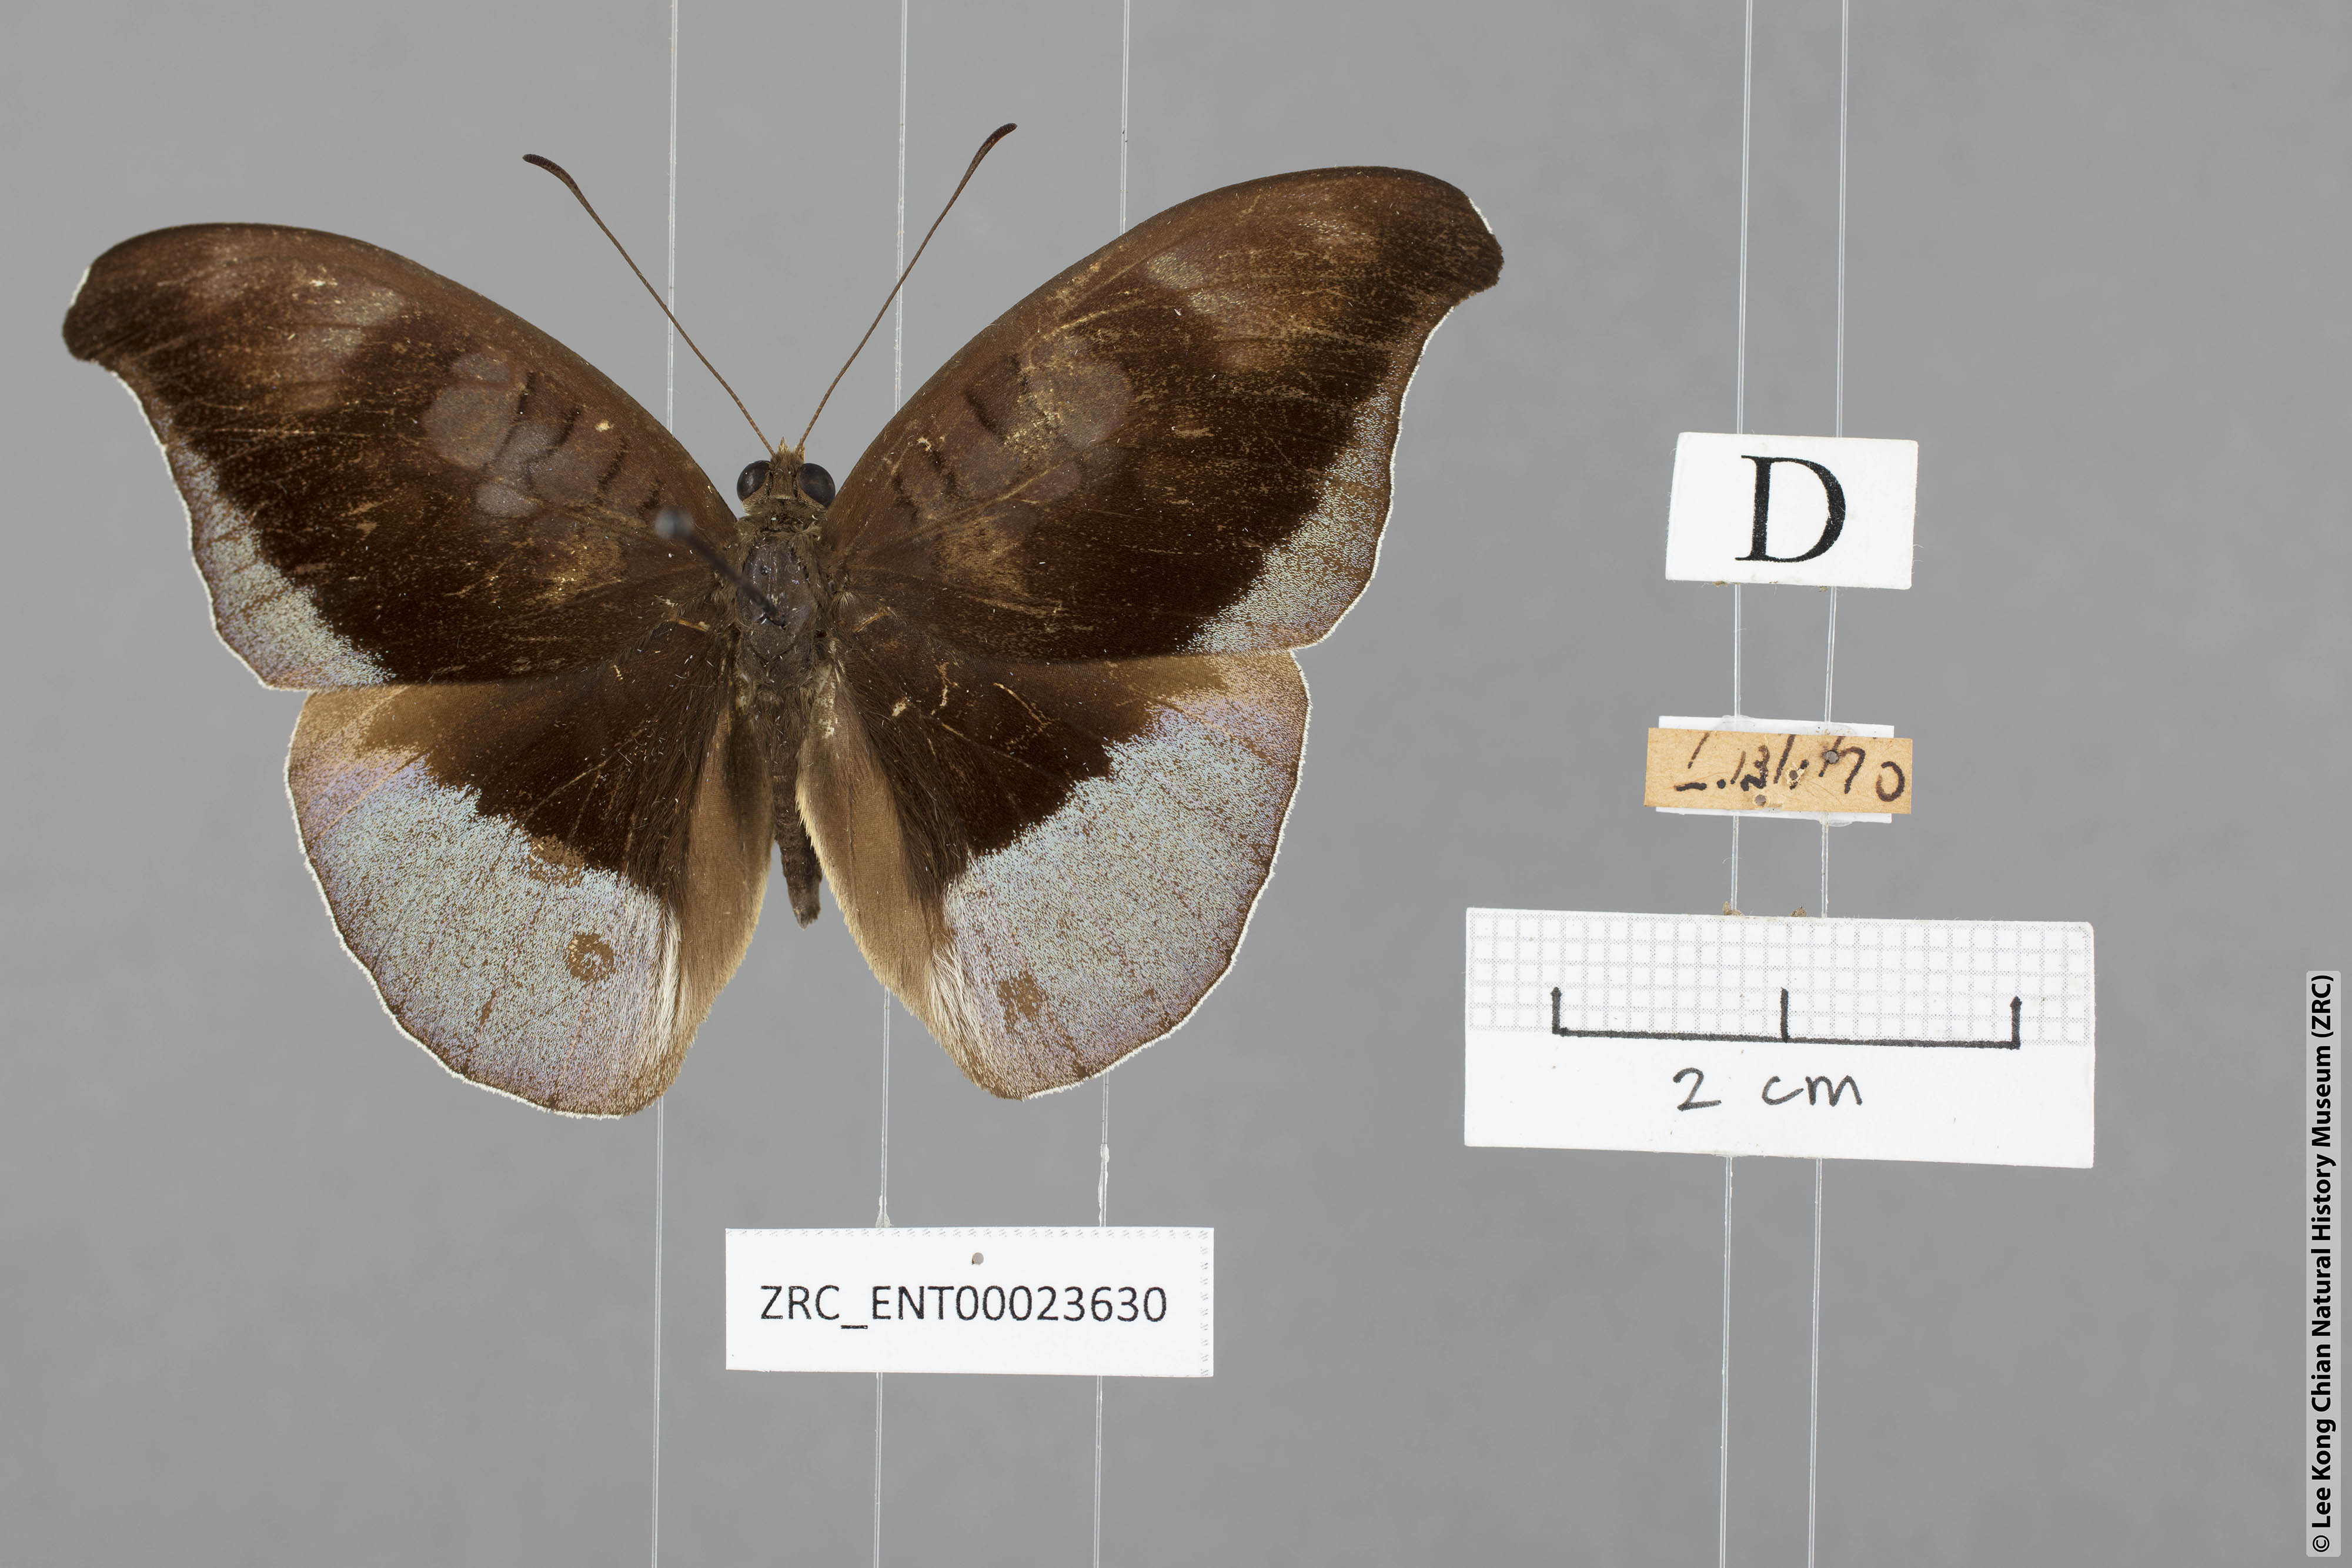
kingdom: Animalia
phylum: Arthropoda
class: Insecta
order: Lepidoptera
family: Nymphalidae
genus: Tanaecia
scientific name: Tanaecia cocytus
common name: Lavender count
